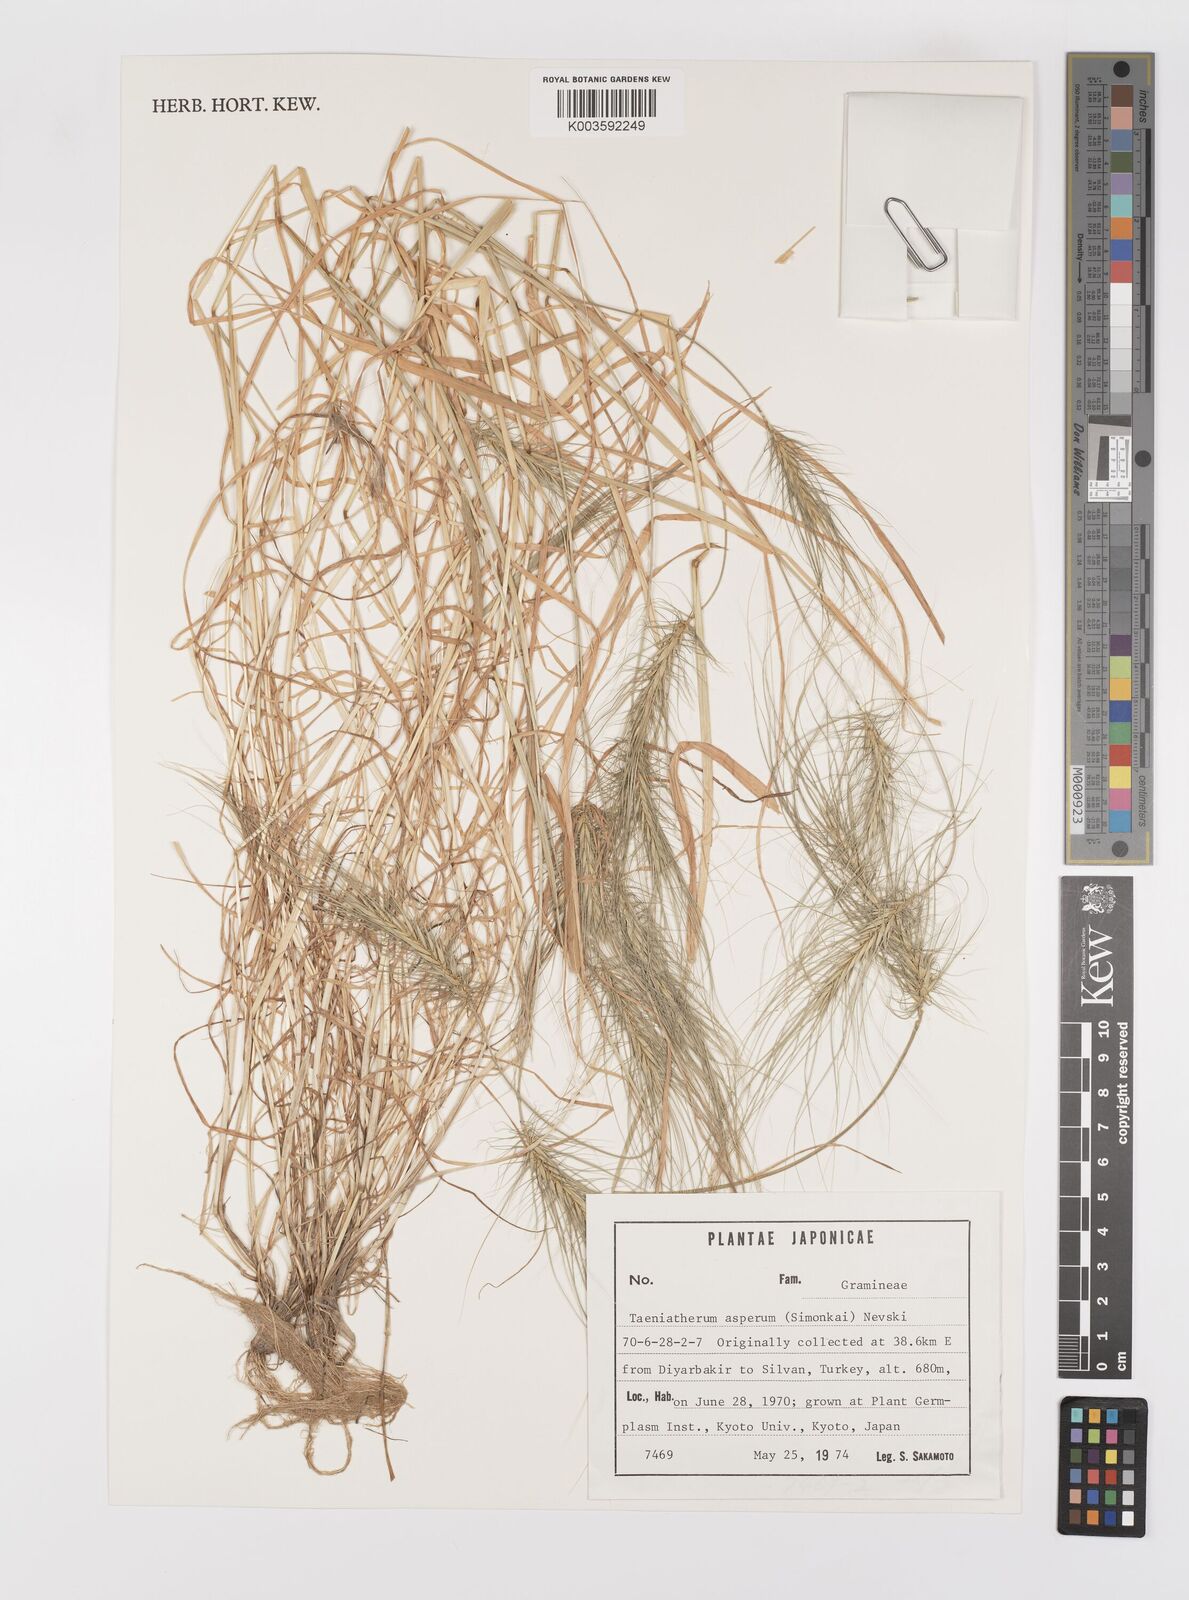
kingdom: Plantae
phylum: Tracheophyta
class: Liliopsida
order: Poales
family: Poaceae
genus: Taeniatherum
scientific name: Taeniatherum caput-medusae
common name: Medusahead
